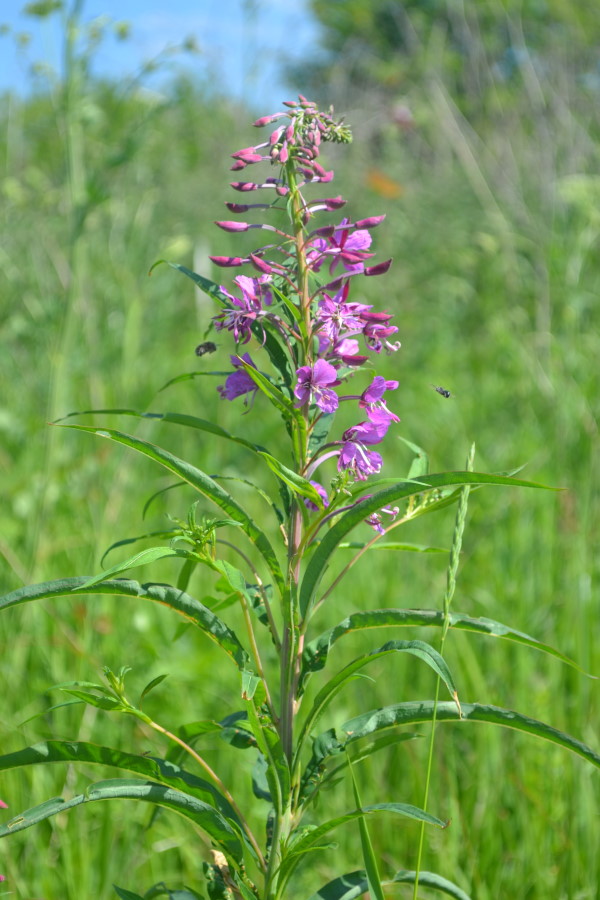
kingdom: Plantae
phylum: Tracheophyta
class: Magnoliopsida
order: Myrtales
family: Onagraceae
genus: Chamaenerion
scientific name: Chamaenerion angustifolium
